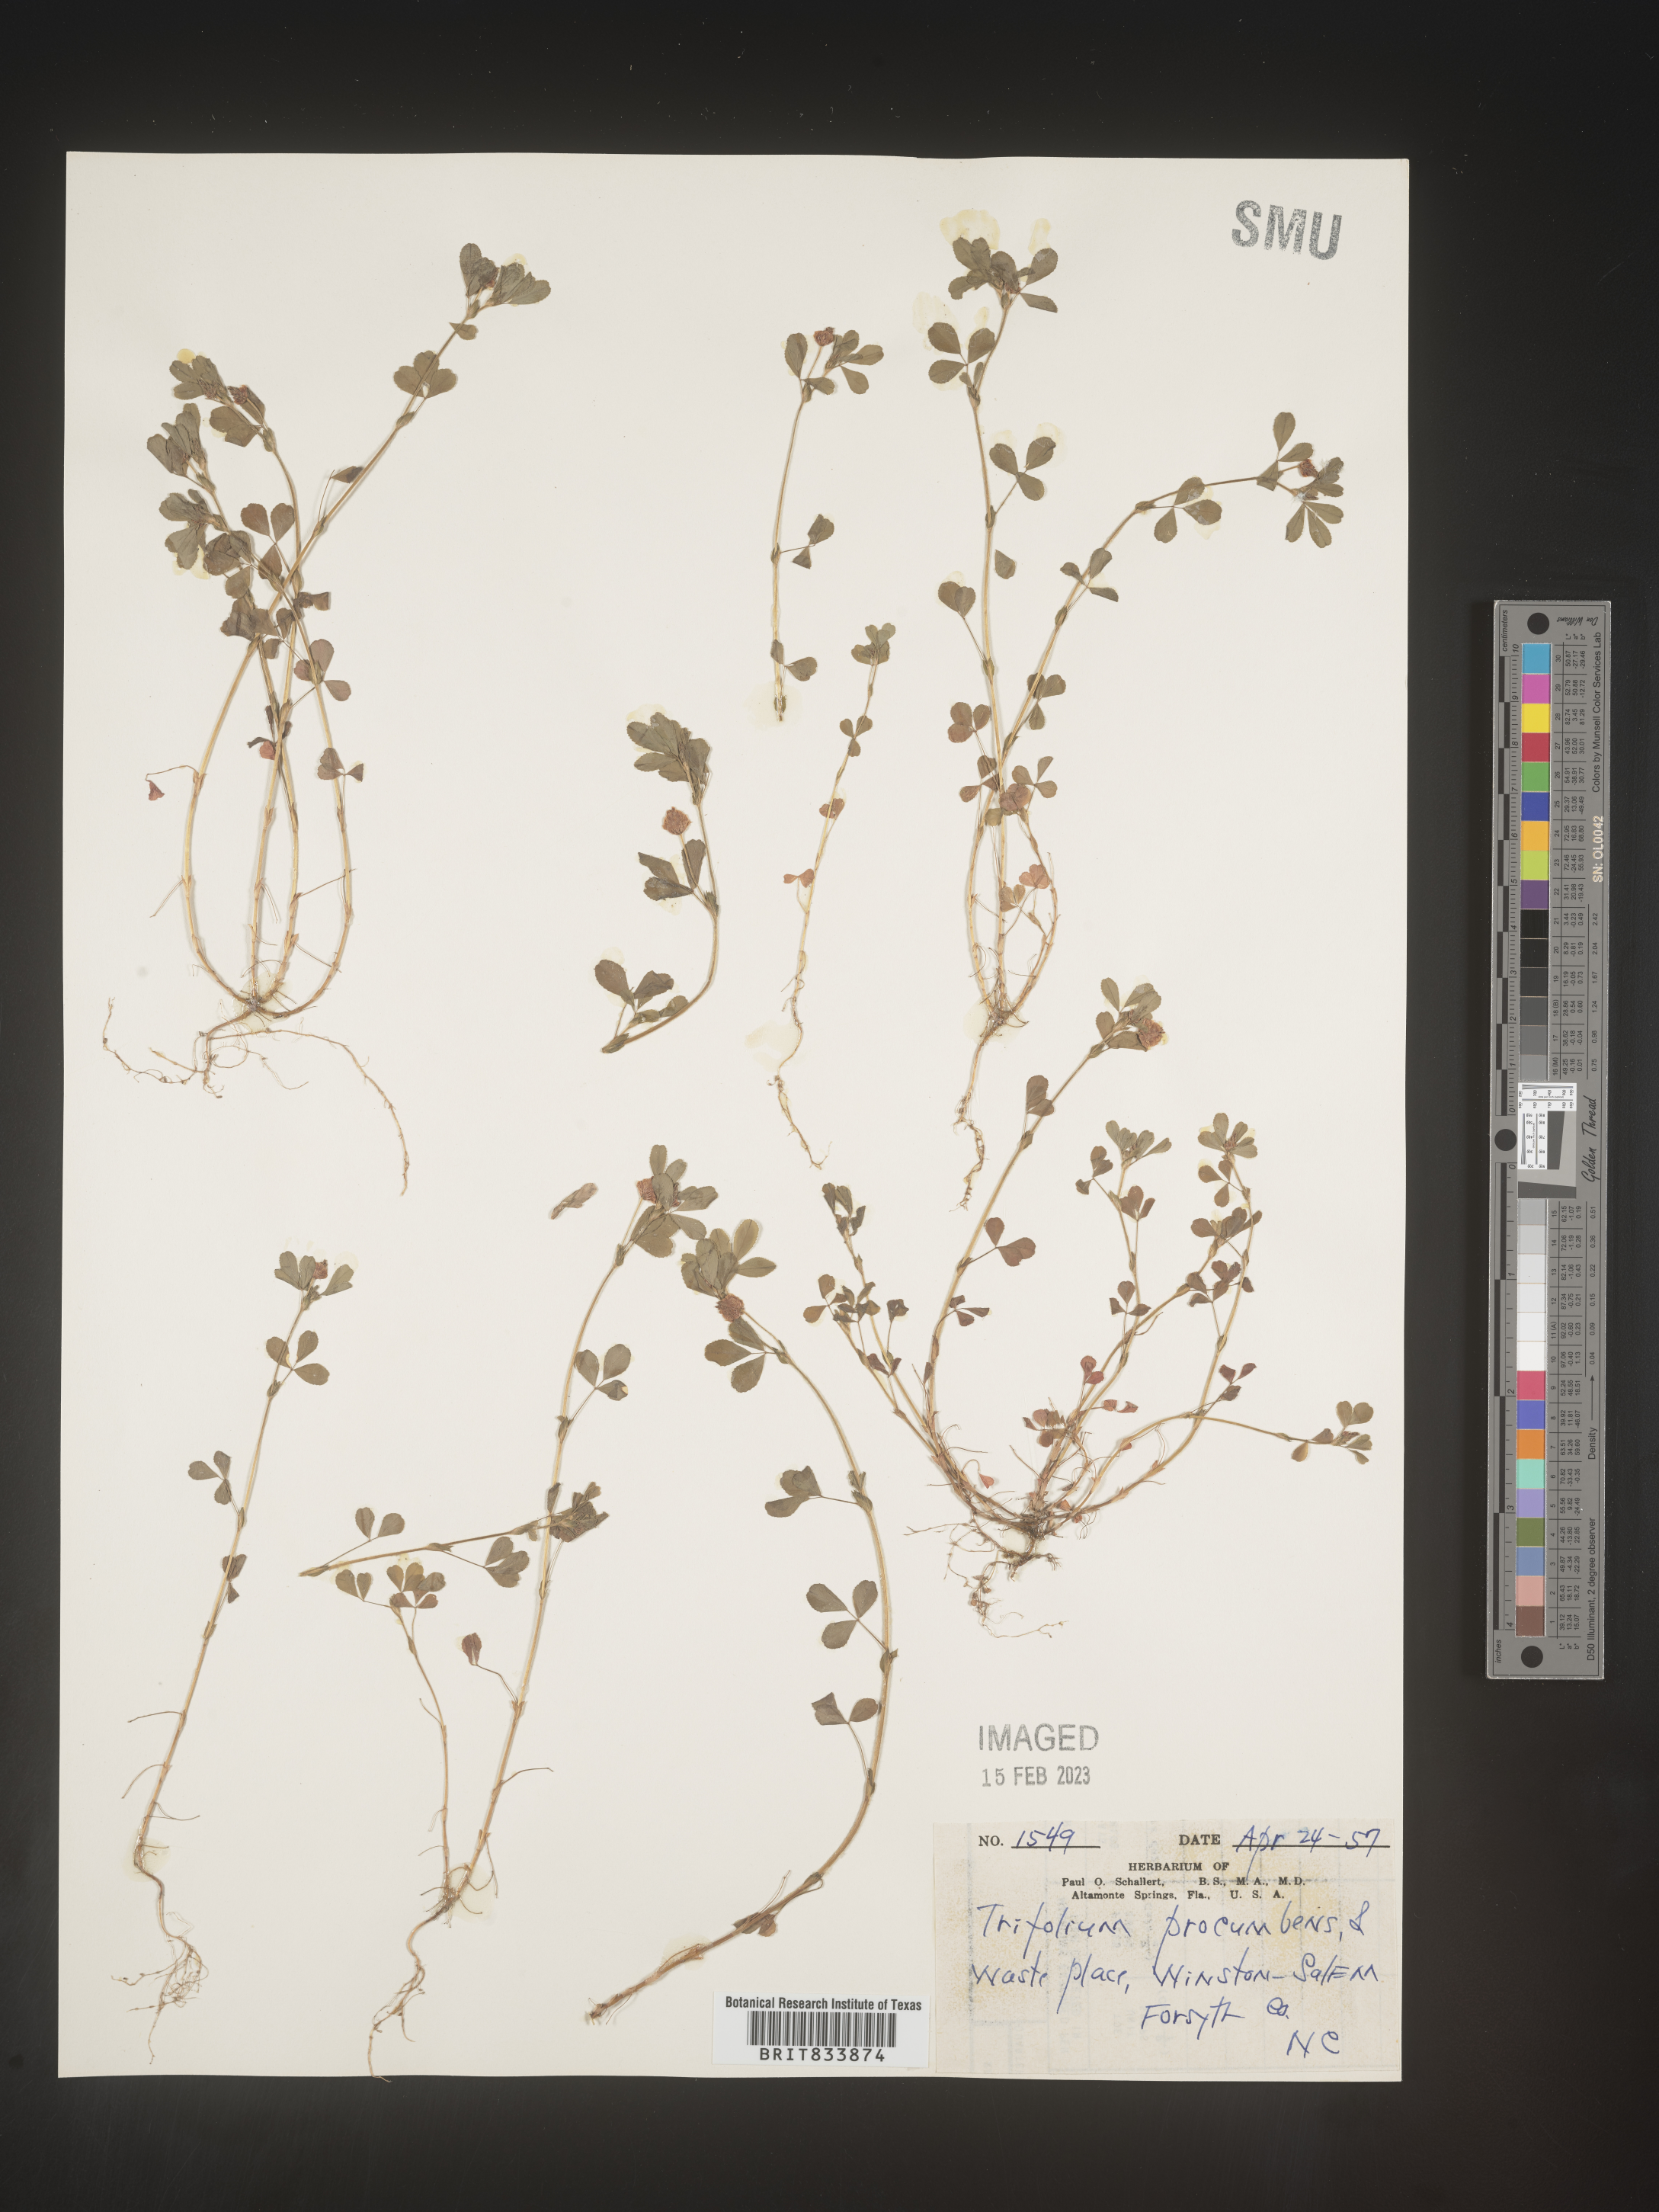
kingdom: Plantae
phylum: Tracheophyta
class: Magnoliopsida
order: Fabales
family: Fabaceae
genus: Trifolium
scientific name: Trifolium campestre
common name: Field clover
